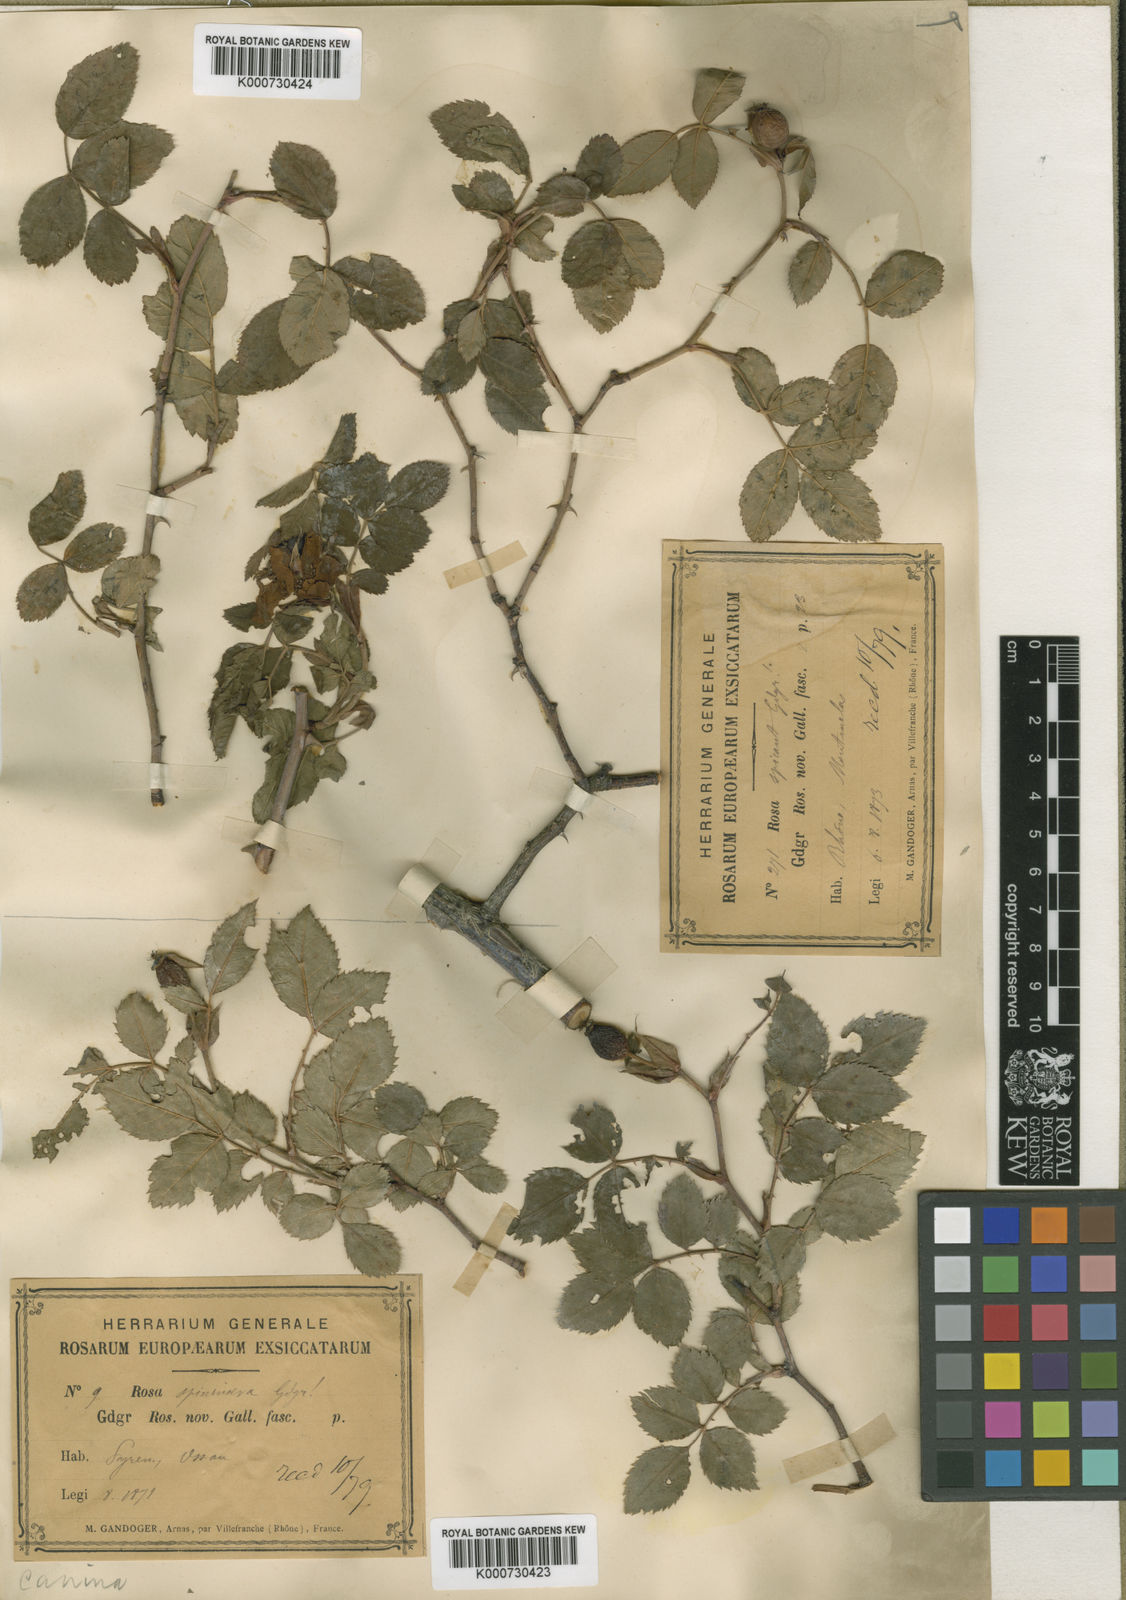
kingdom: Plantae
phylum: Tracheophyta
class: Magnoliopsida
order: Rosales
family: Rosaceae
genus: Rosa
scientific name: Rosa canina
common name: Dog rose
